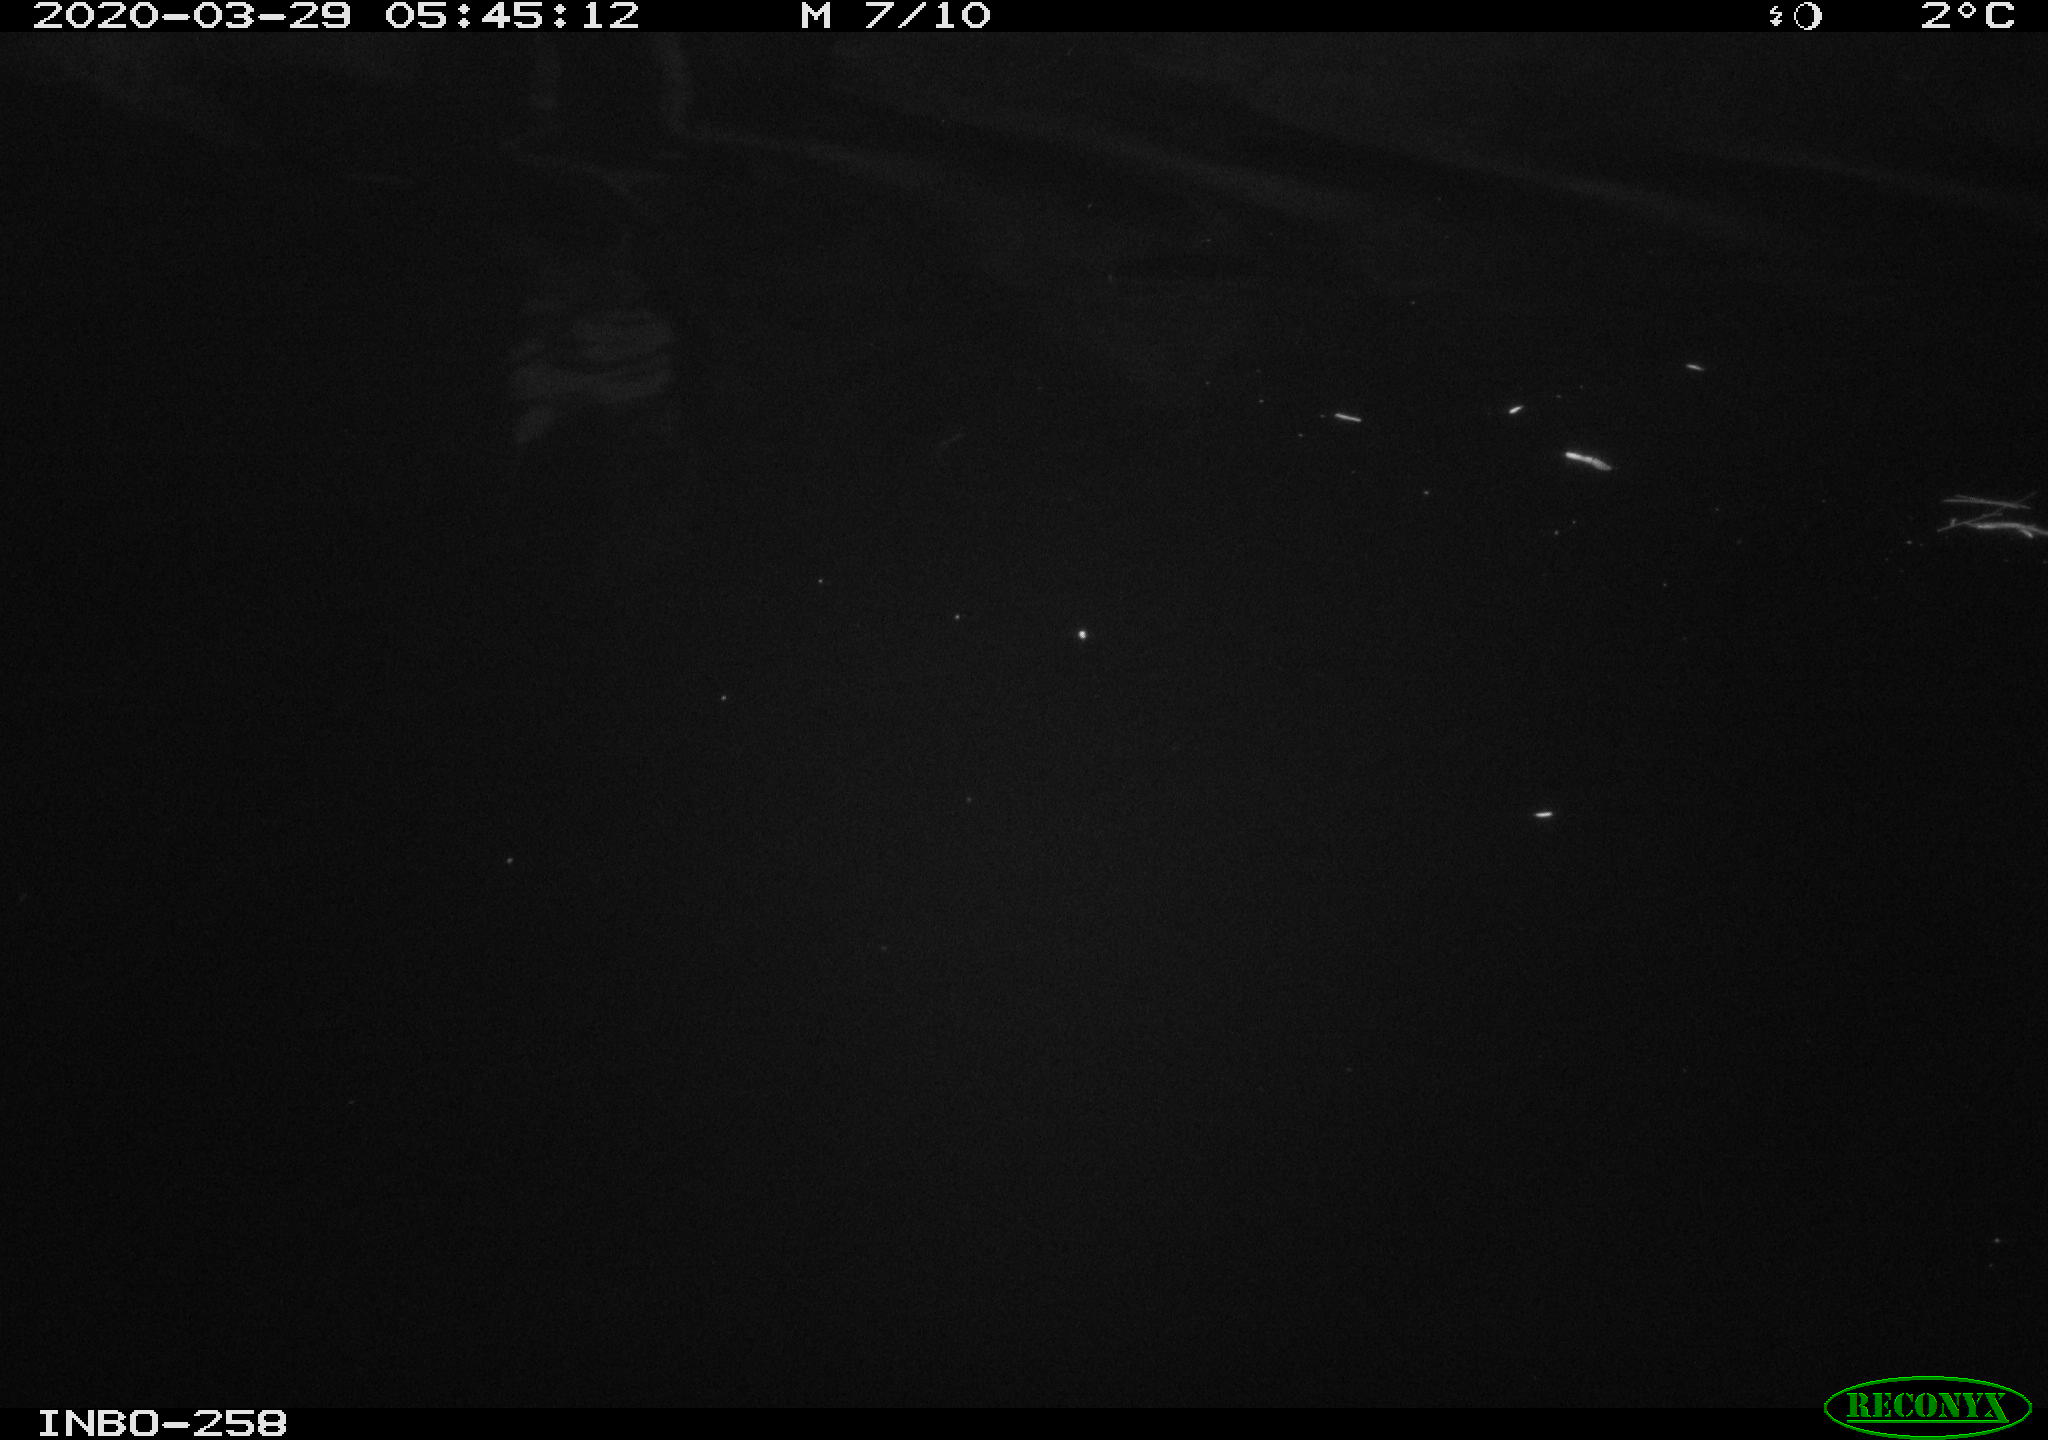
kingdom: Animalia
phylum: Chordata
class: Aves
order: Anseriformes
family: Anatidae
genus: Anas
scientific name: Anas platyrhynchos
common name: Mallard
